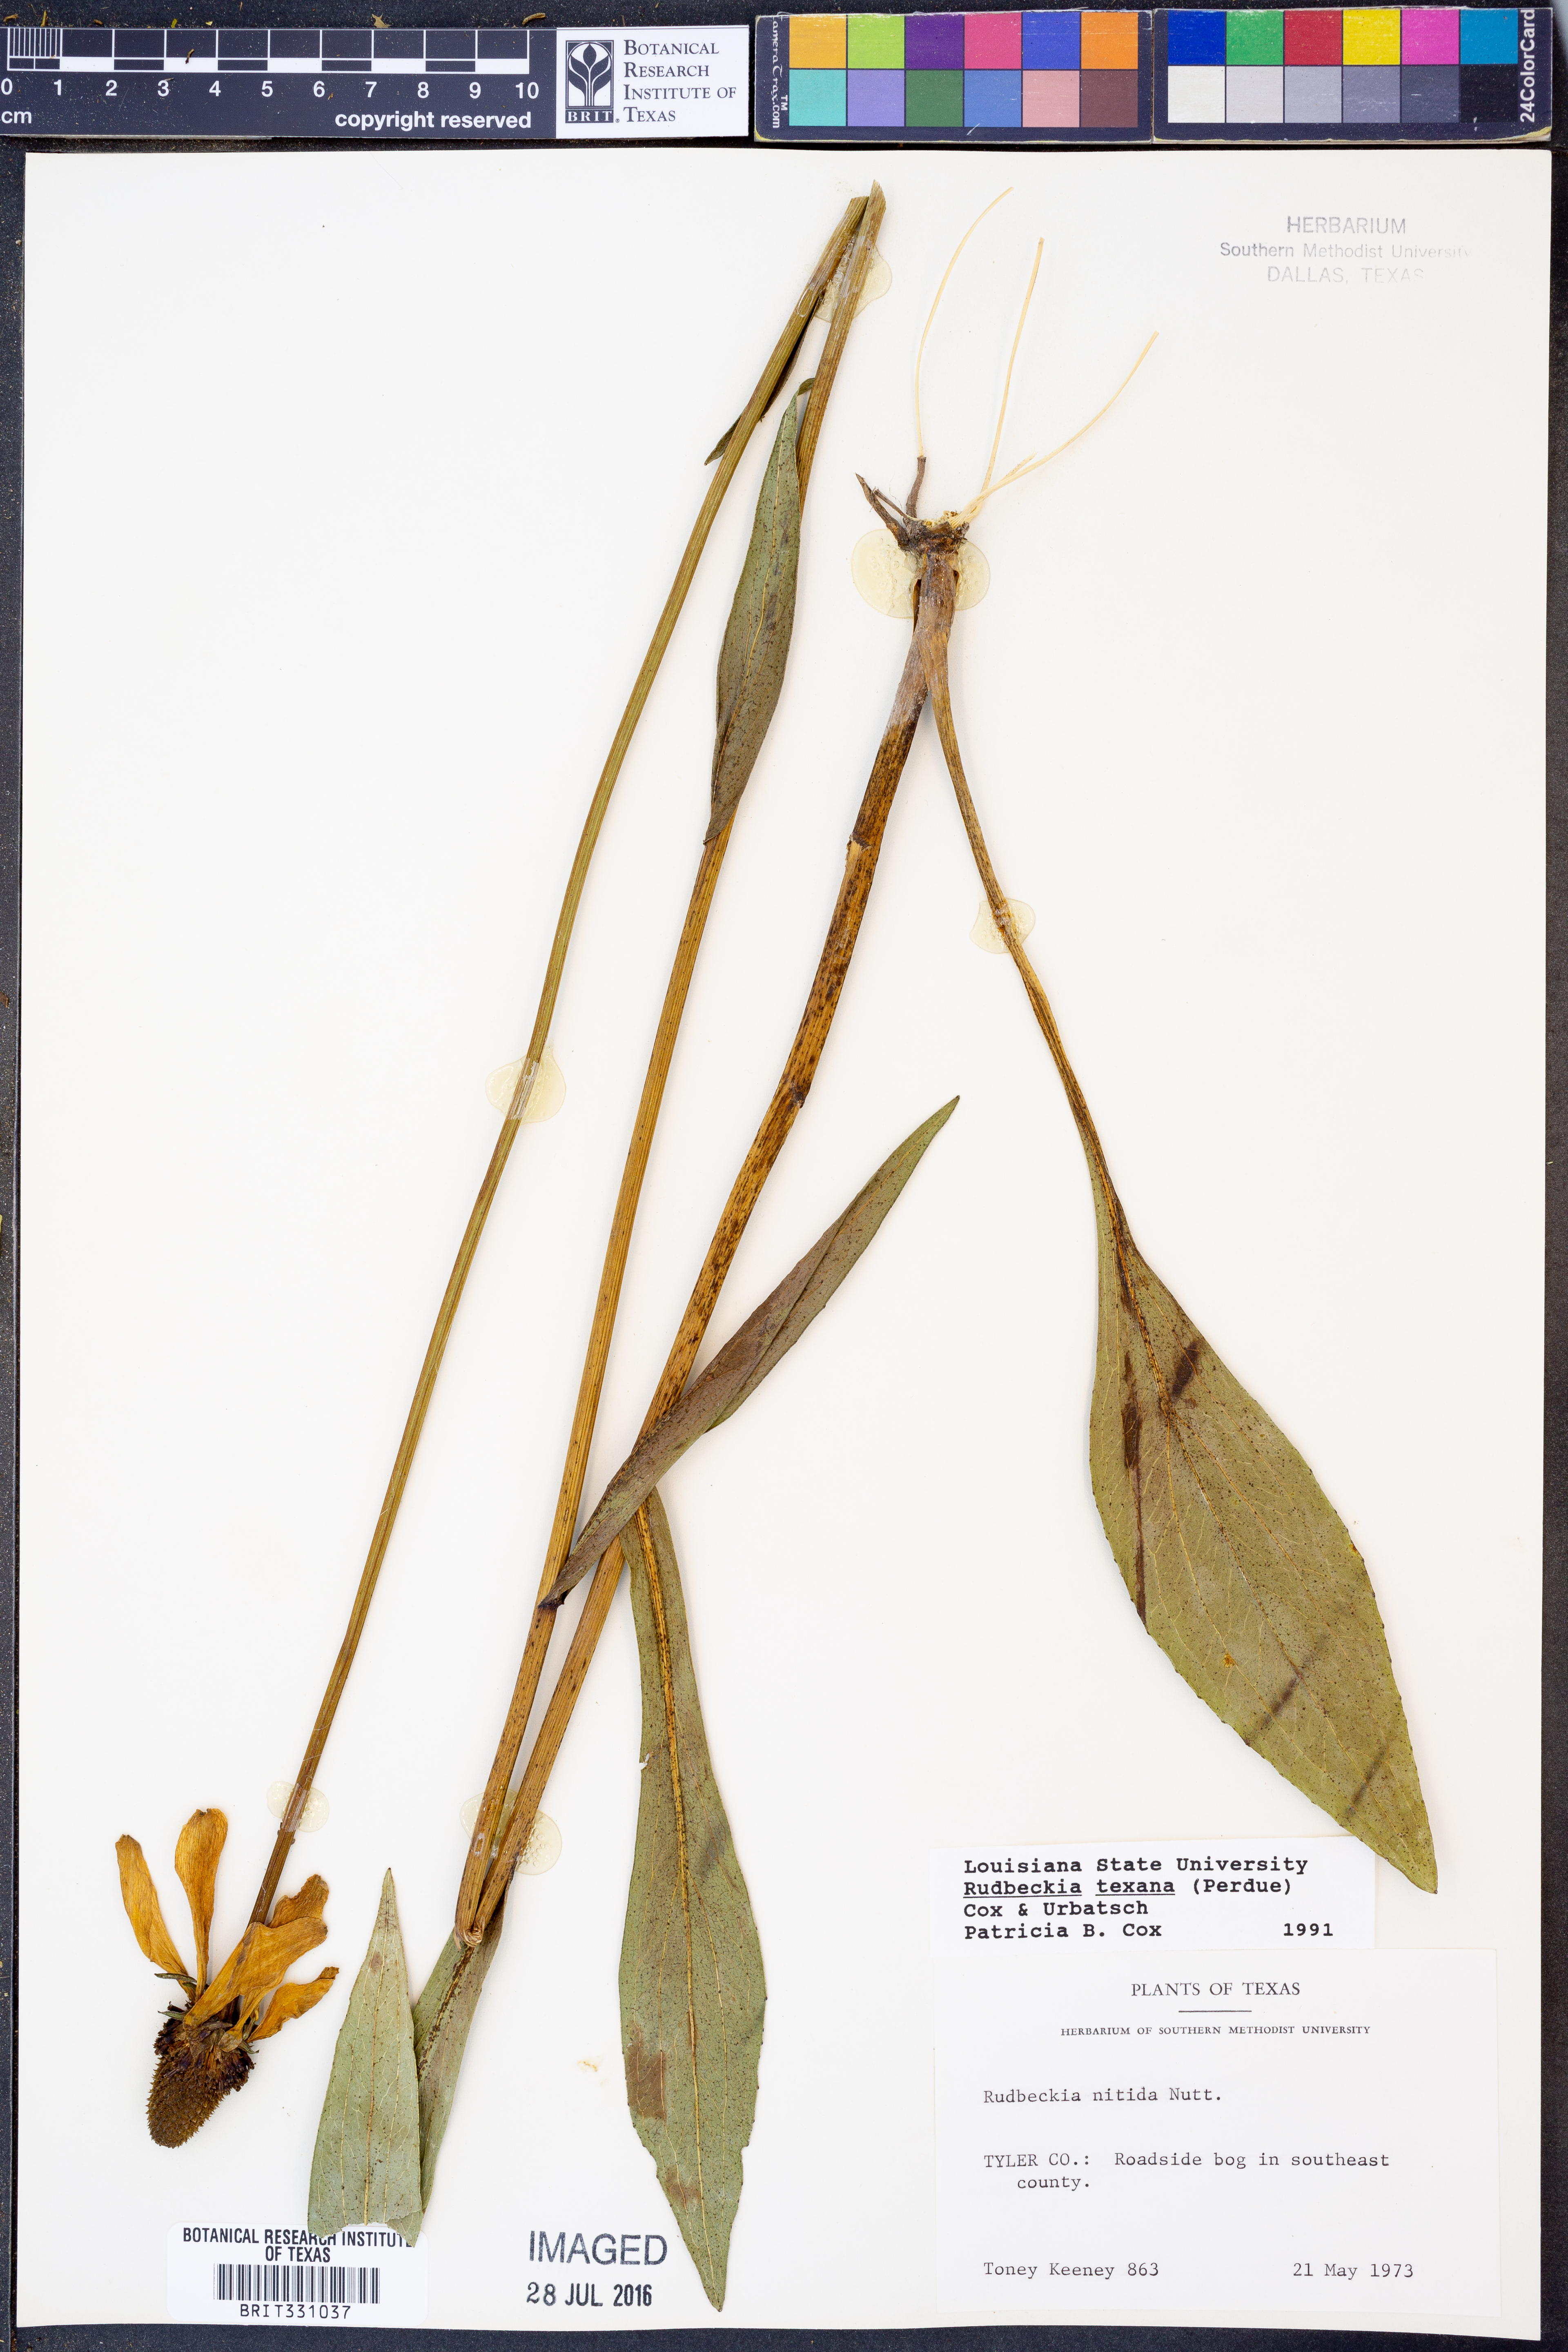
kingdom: Plantae
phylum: Tracheophyta
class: Magnoliopsida
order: Asterales
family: Asteraceae
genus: Rudbeckia
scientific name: Rudbeckia texana
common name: Texas coneflower
